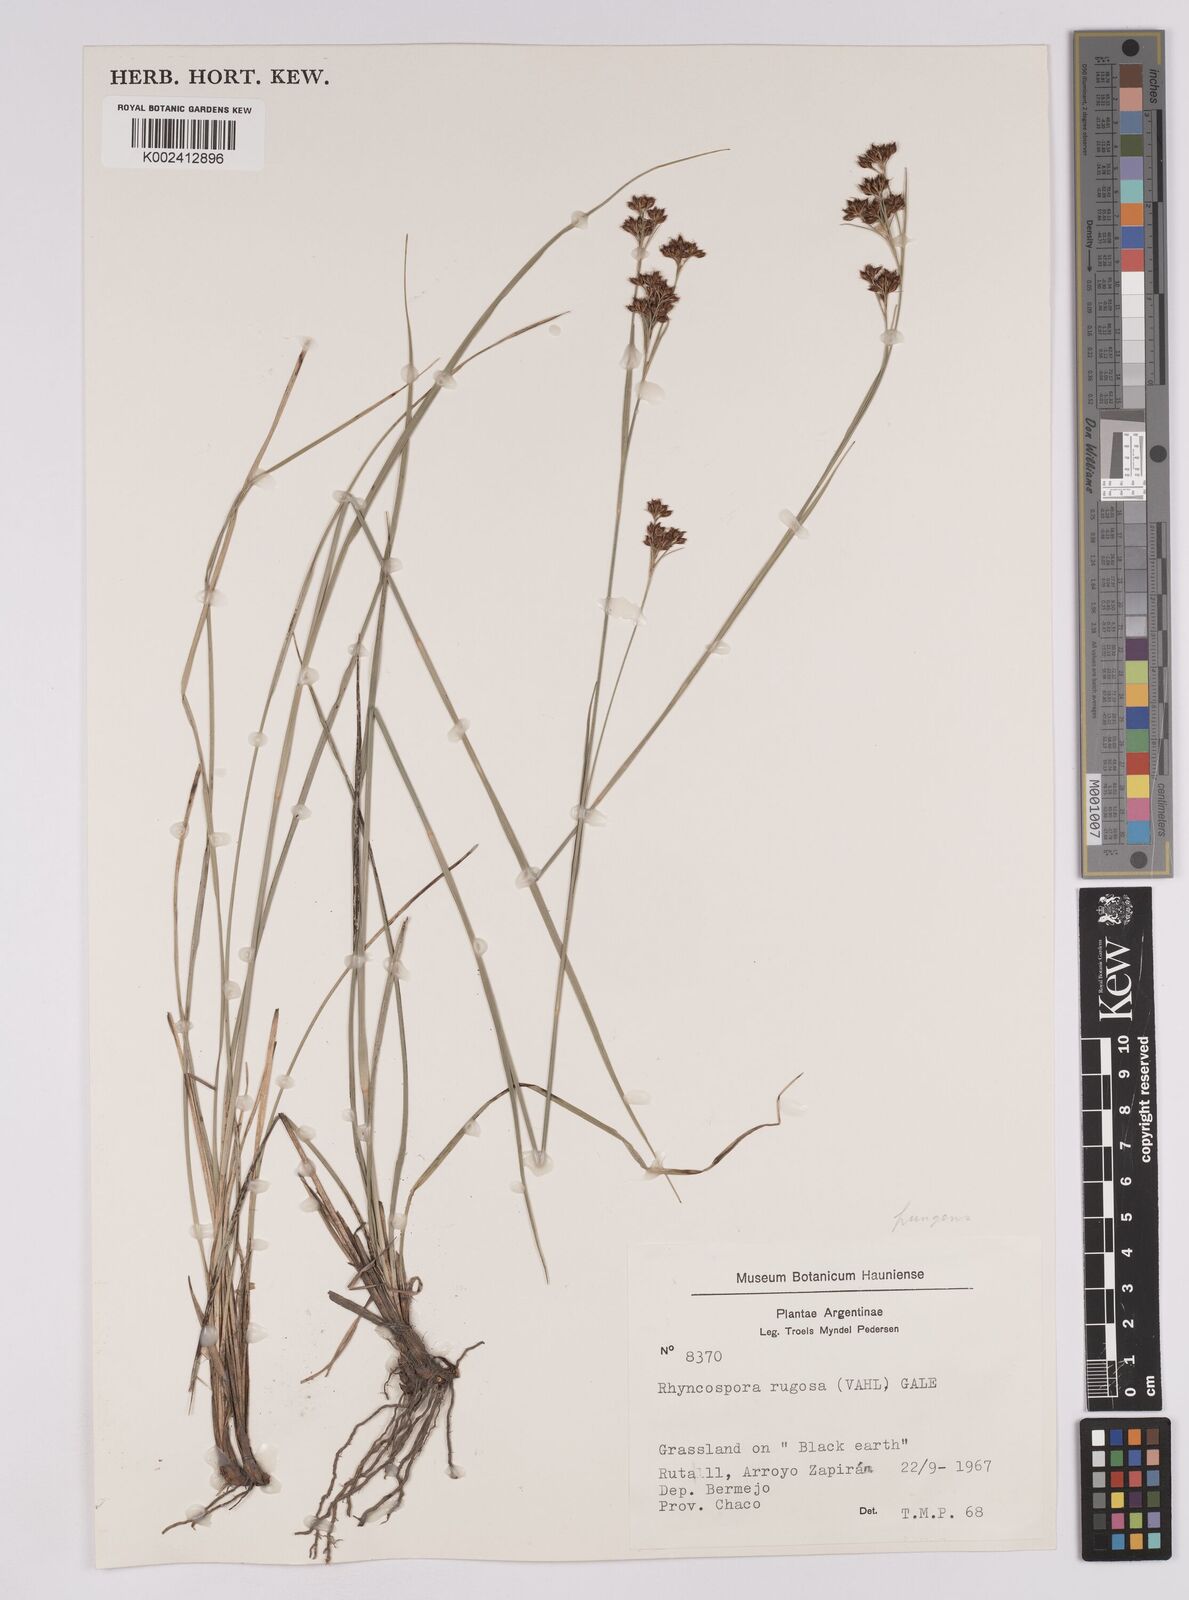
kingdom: Plantae
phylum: Tracheophyta
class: Liliopsida
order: Poales
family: Cyperaceae
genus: Rhynchospora
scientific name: Rhynchospora rugosa
